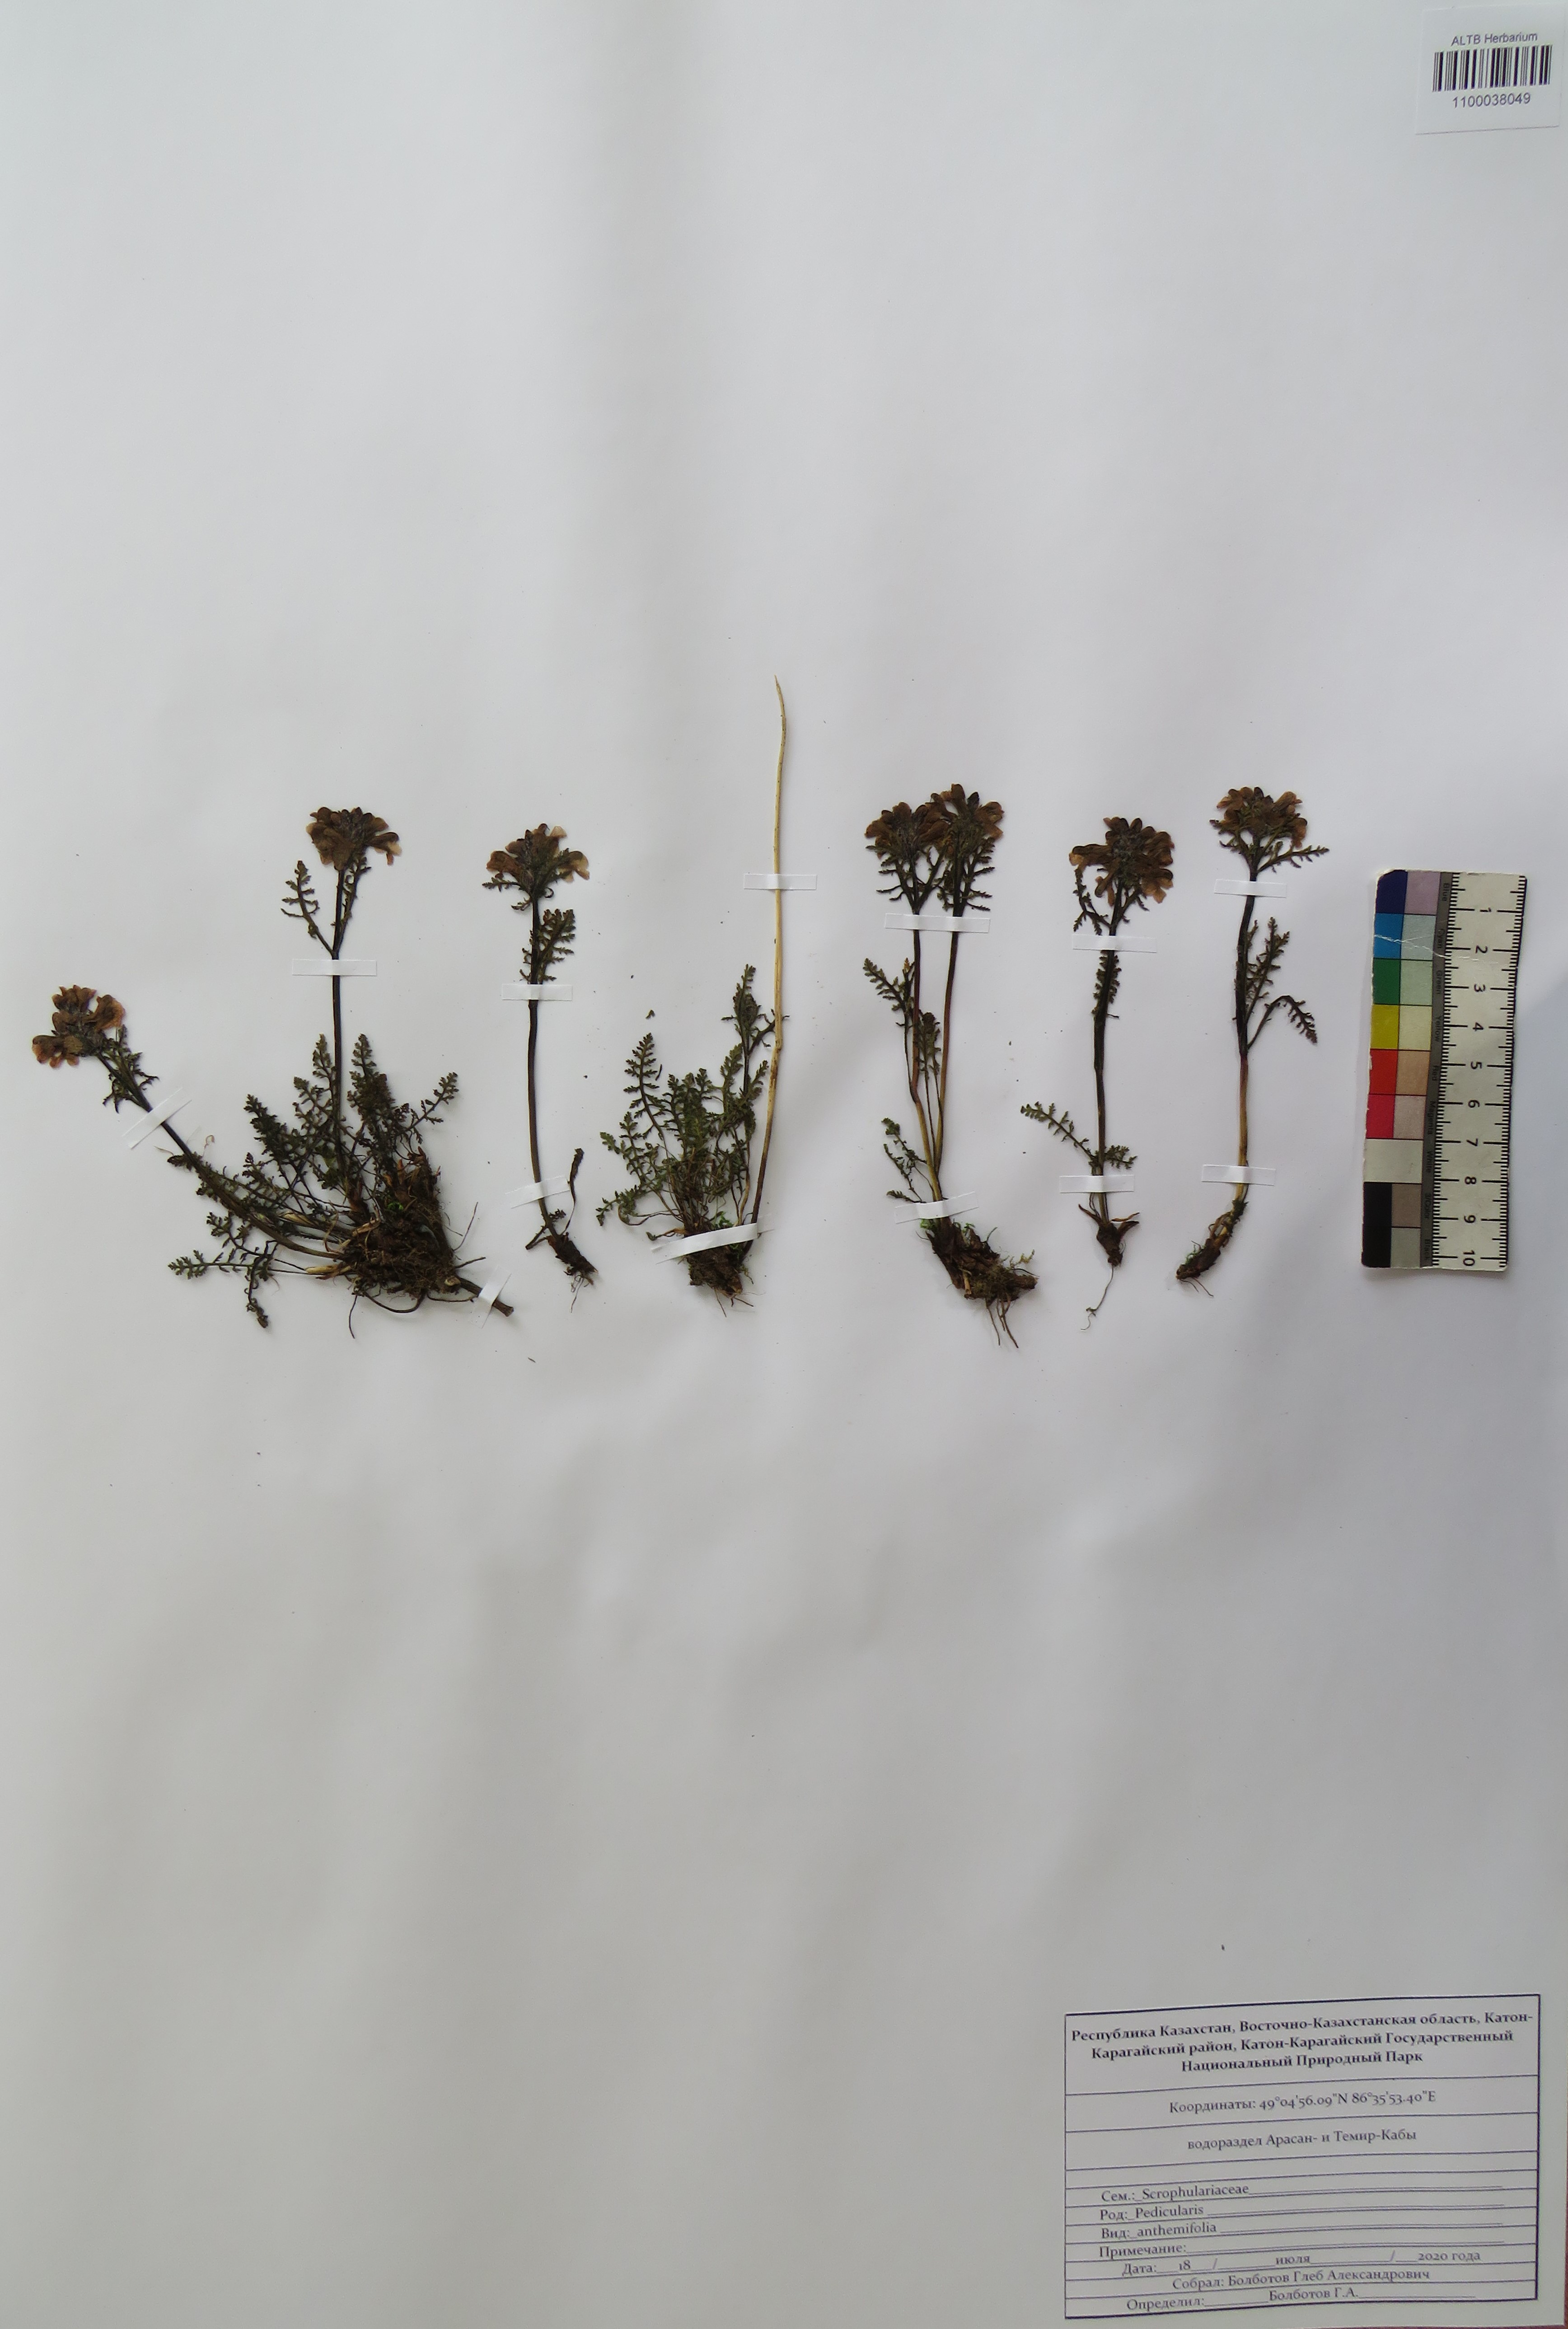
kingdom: Plantae
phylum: Tracheophyta
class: Magnoliopsida
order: Lamiales
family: Orobanchaceae
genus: Pedicularis
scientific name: Pedicularis anthemifolia
